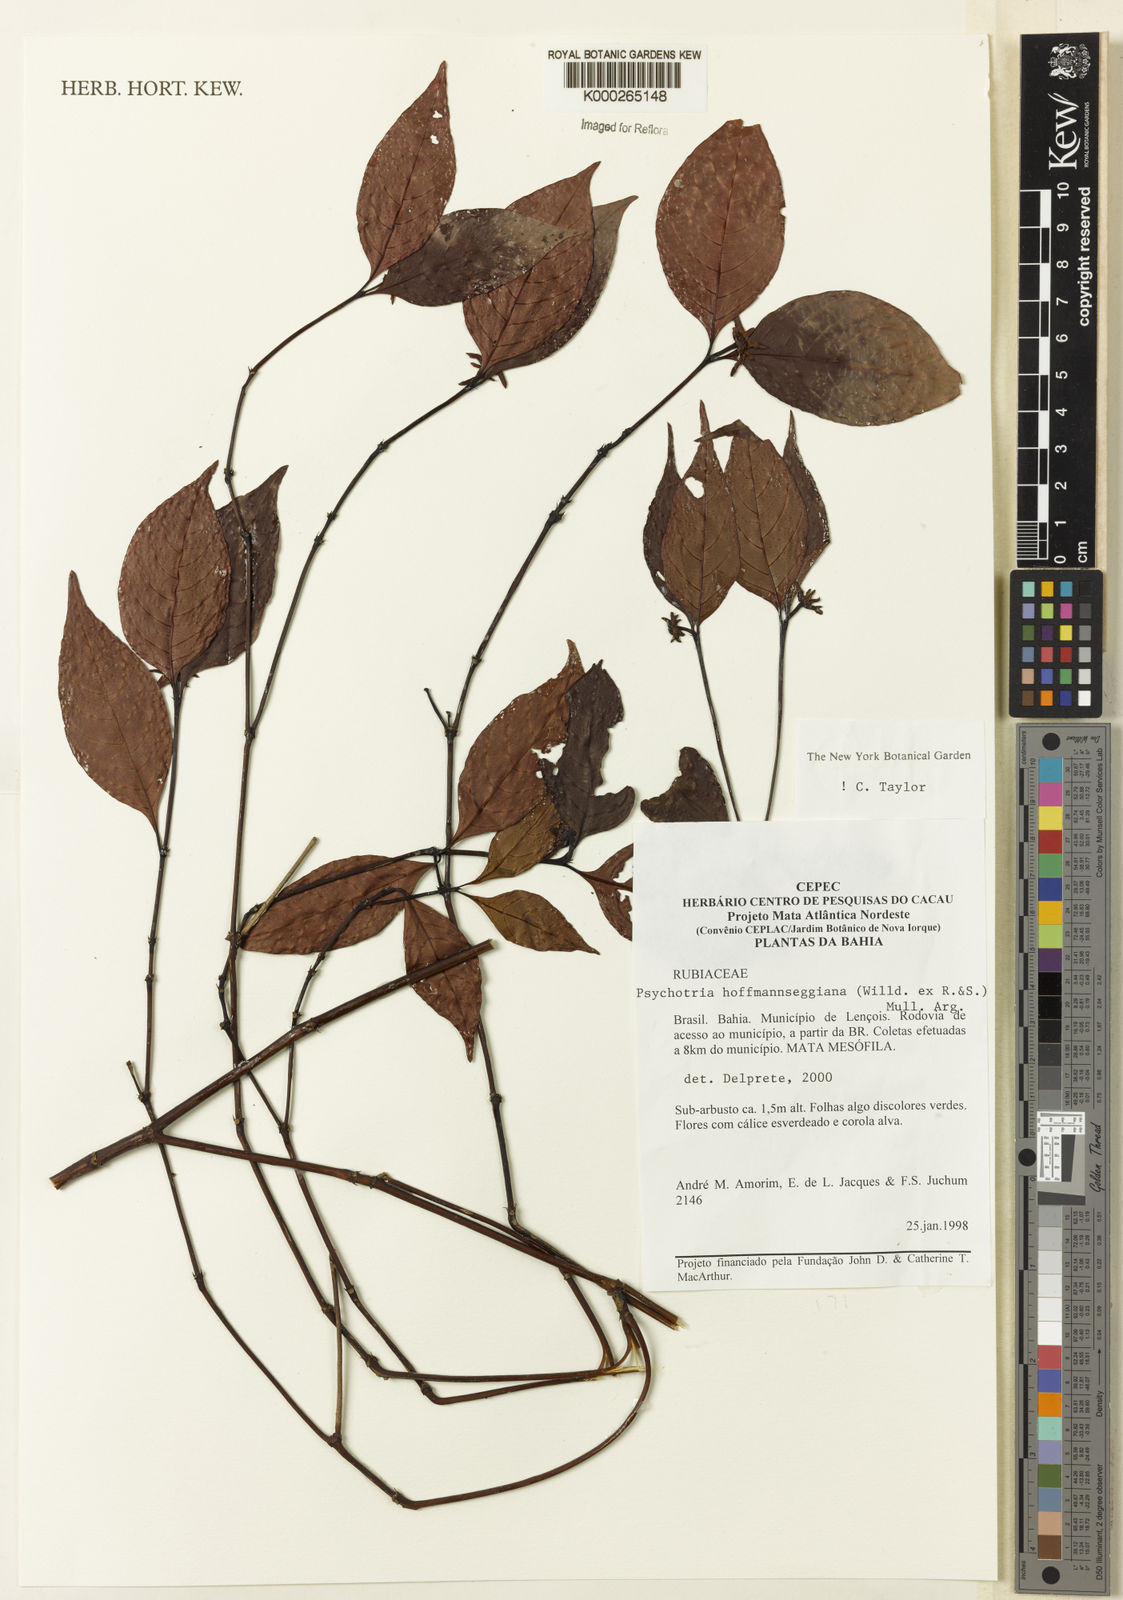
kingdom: Plantae
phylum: Tracheophyta
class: Magnoliopsida
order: Gentianales
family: Rubiaceae
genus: Psychotria
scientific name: Psychotria
